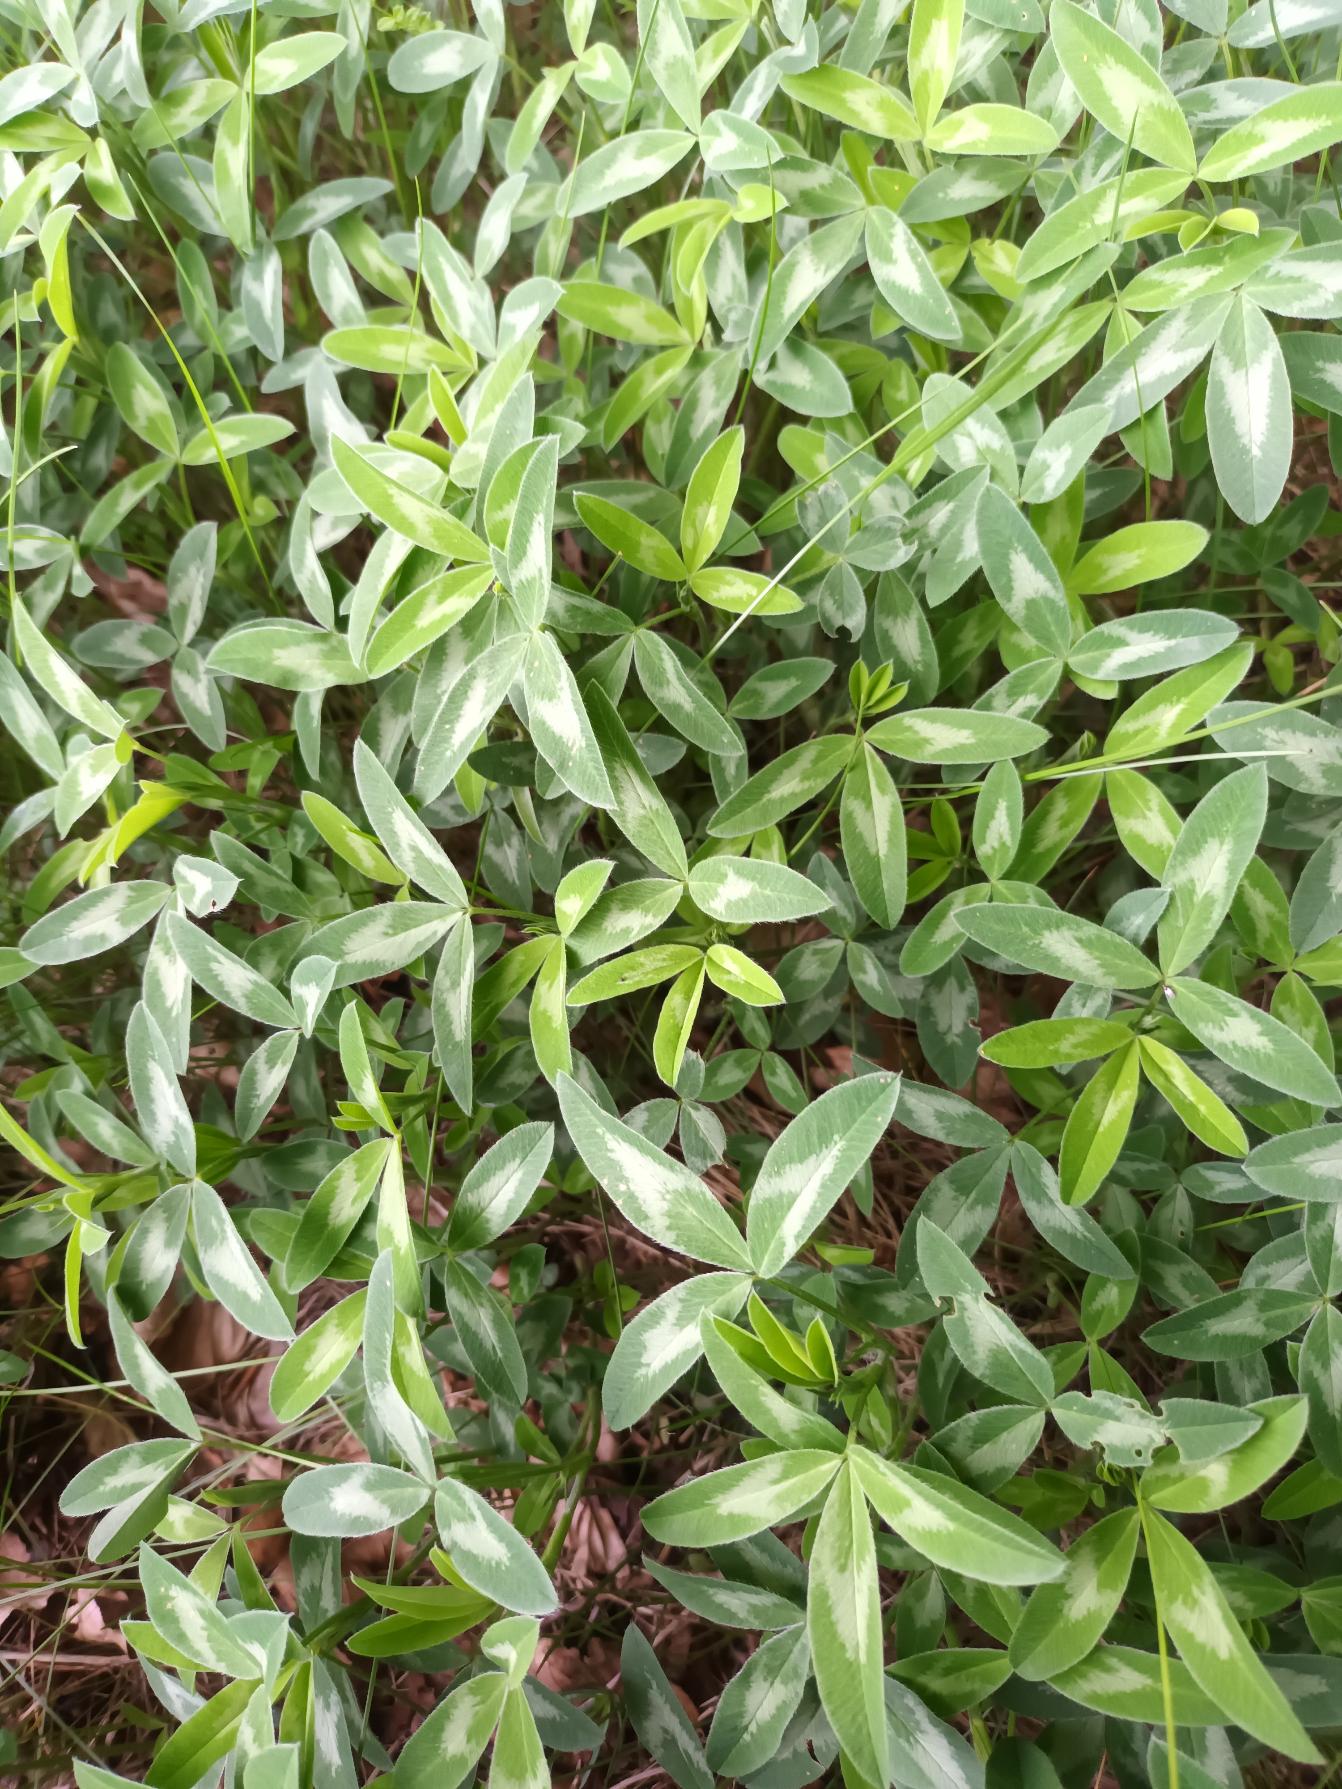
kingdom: Plantae
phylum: Tracheophyta
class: Magnoliopsida
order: Fabales
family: Fabaceae
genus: Trifolium
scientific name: Trifolium medium
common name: Bugtet kløver
